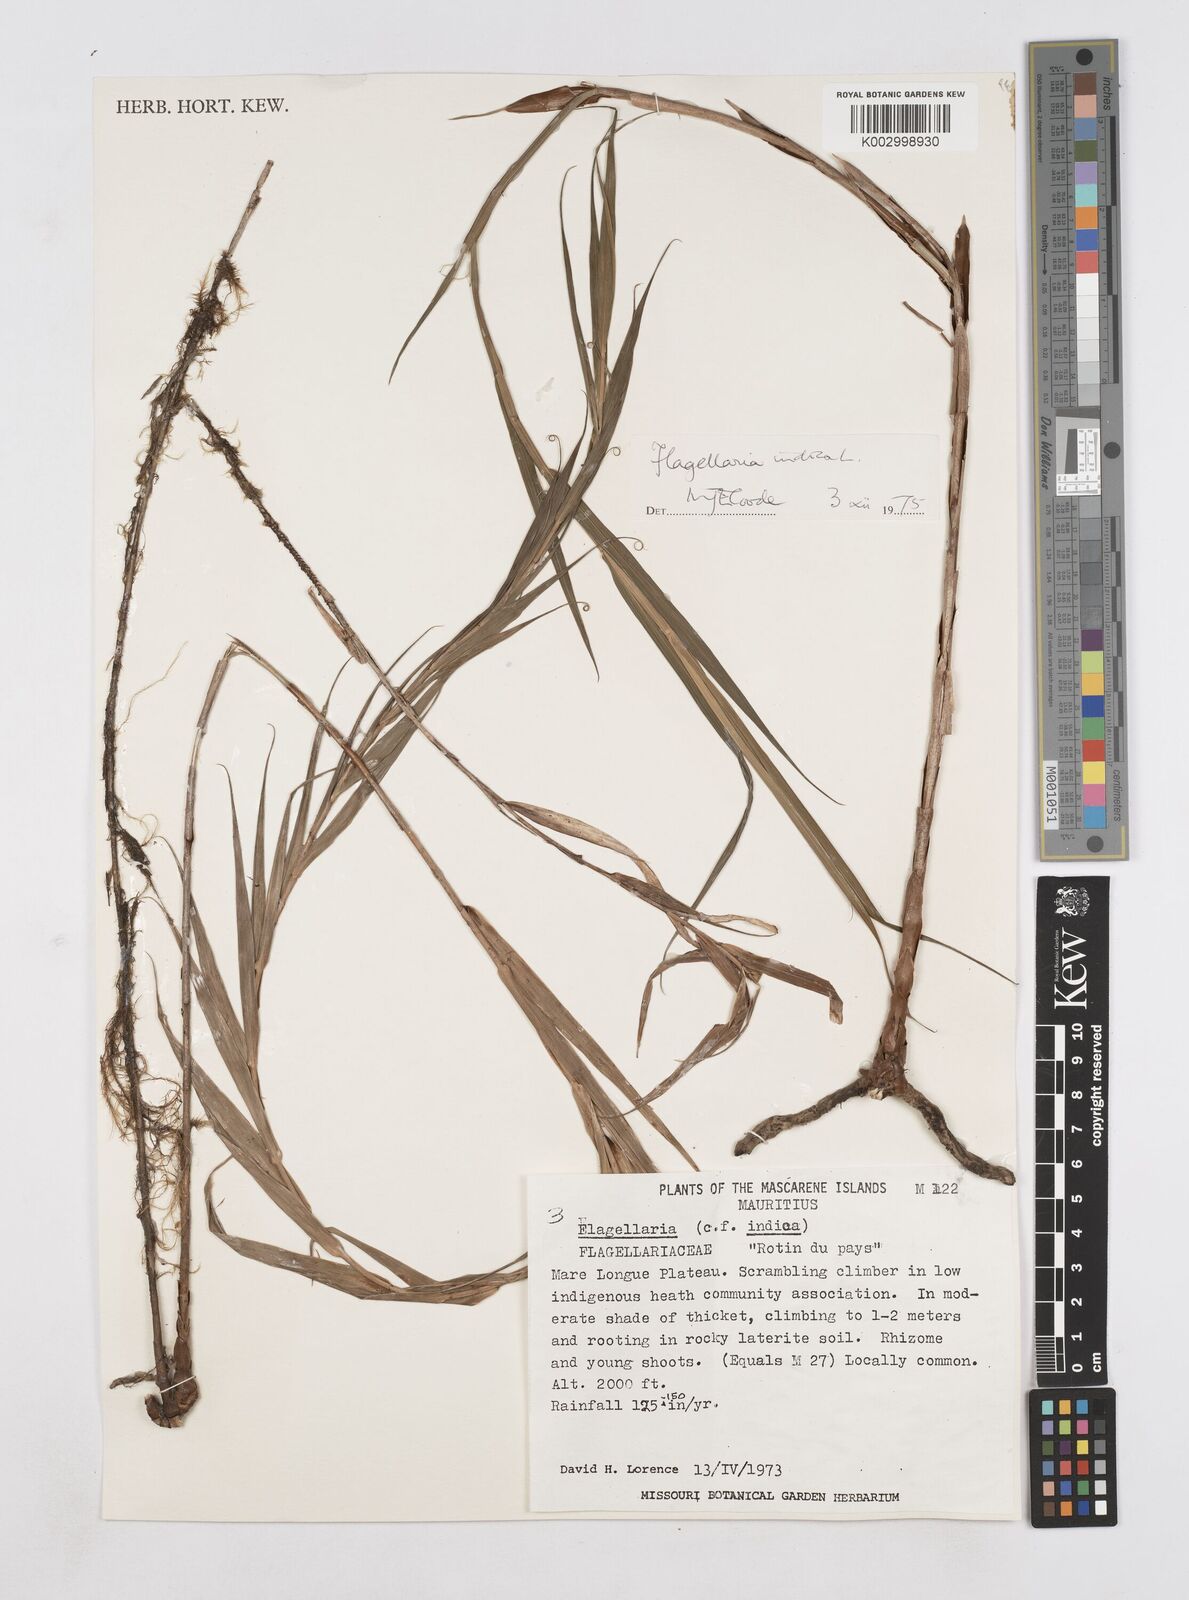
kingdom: Plantae
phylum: Tracheophyta
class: Liliopsida
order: Poales
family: Flagellariaceae
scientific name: Flagellariaceae
